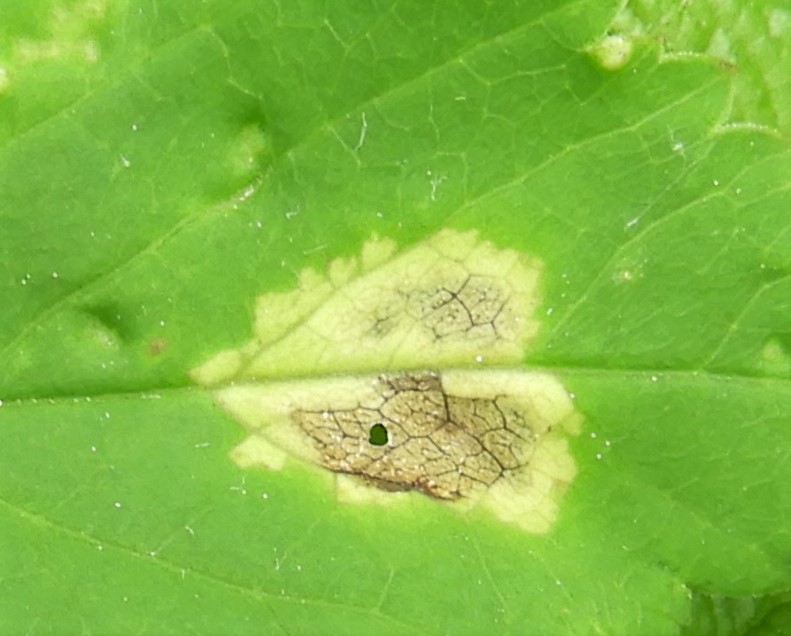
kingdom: Chromista
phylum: Oomycota
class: Peronosporea
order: Peronosporales
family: Peronosporaceae
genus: Peronospora
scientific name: Peronospora crustosa
